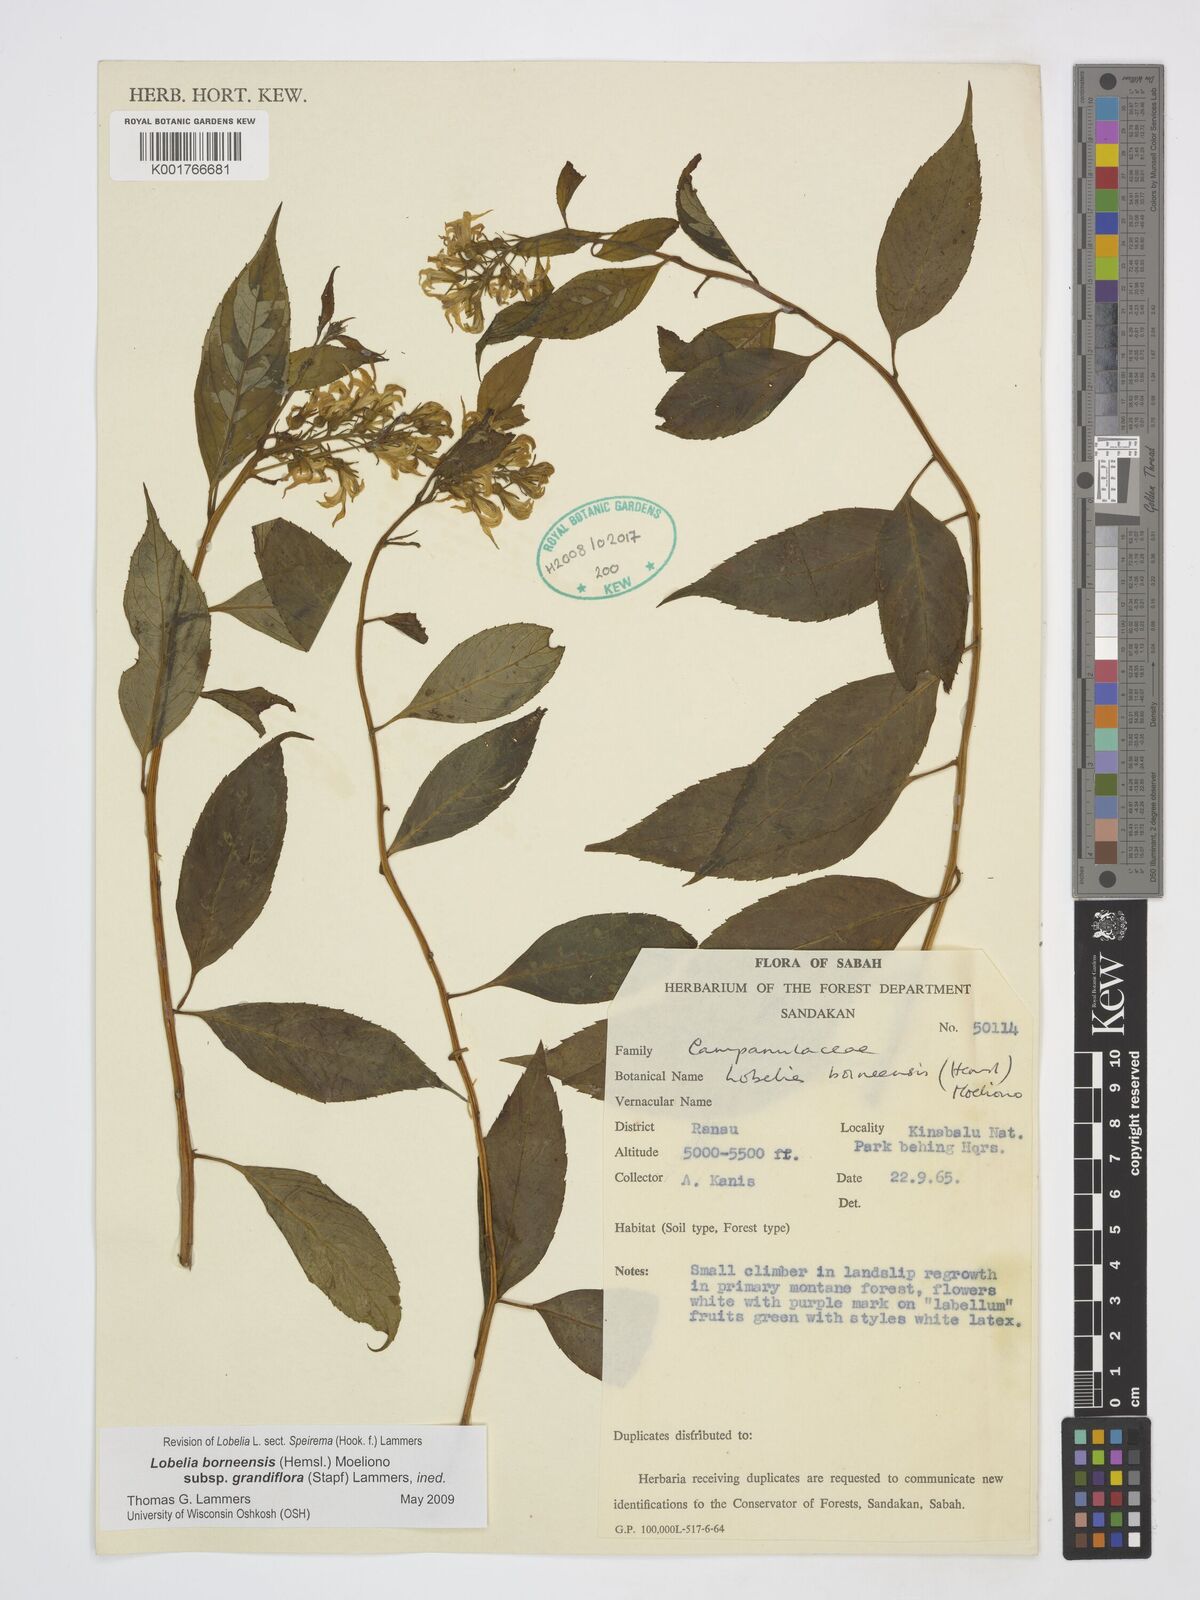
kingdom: Plantae
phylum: Tracheophyta
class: Magnoliopsida
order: Asterales
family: Campanulaceae
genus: Lobelia
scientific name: Lobelia borneensis
